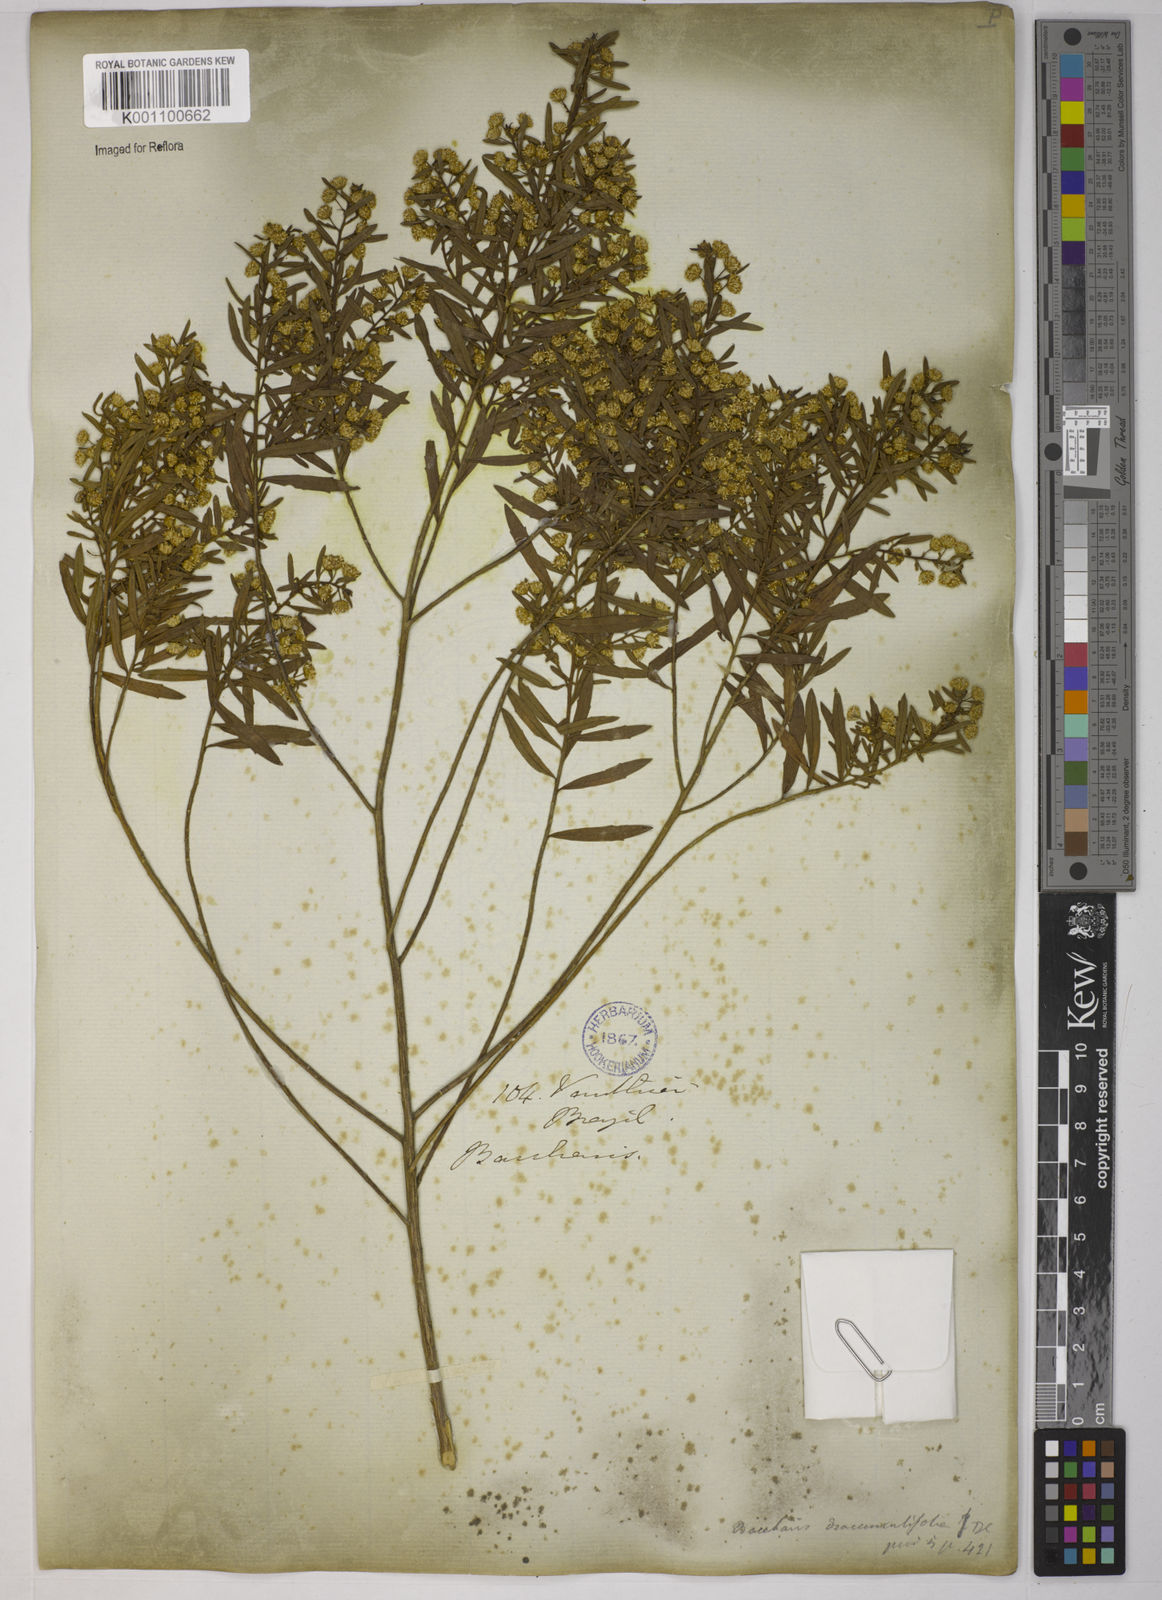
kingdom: Plantae
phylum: Tracheophyta
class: Magnoliopsida
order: Asterales
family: Asteraceae
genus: Baccharis
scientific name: Baccharis dracunculifolia
